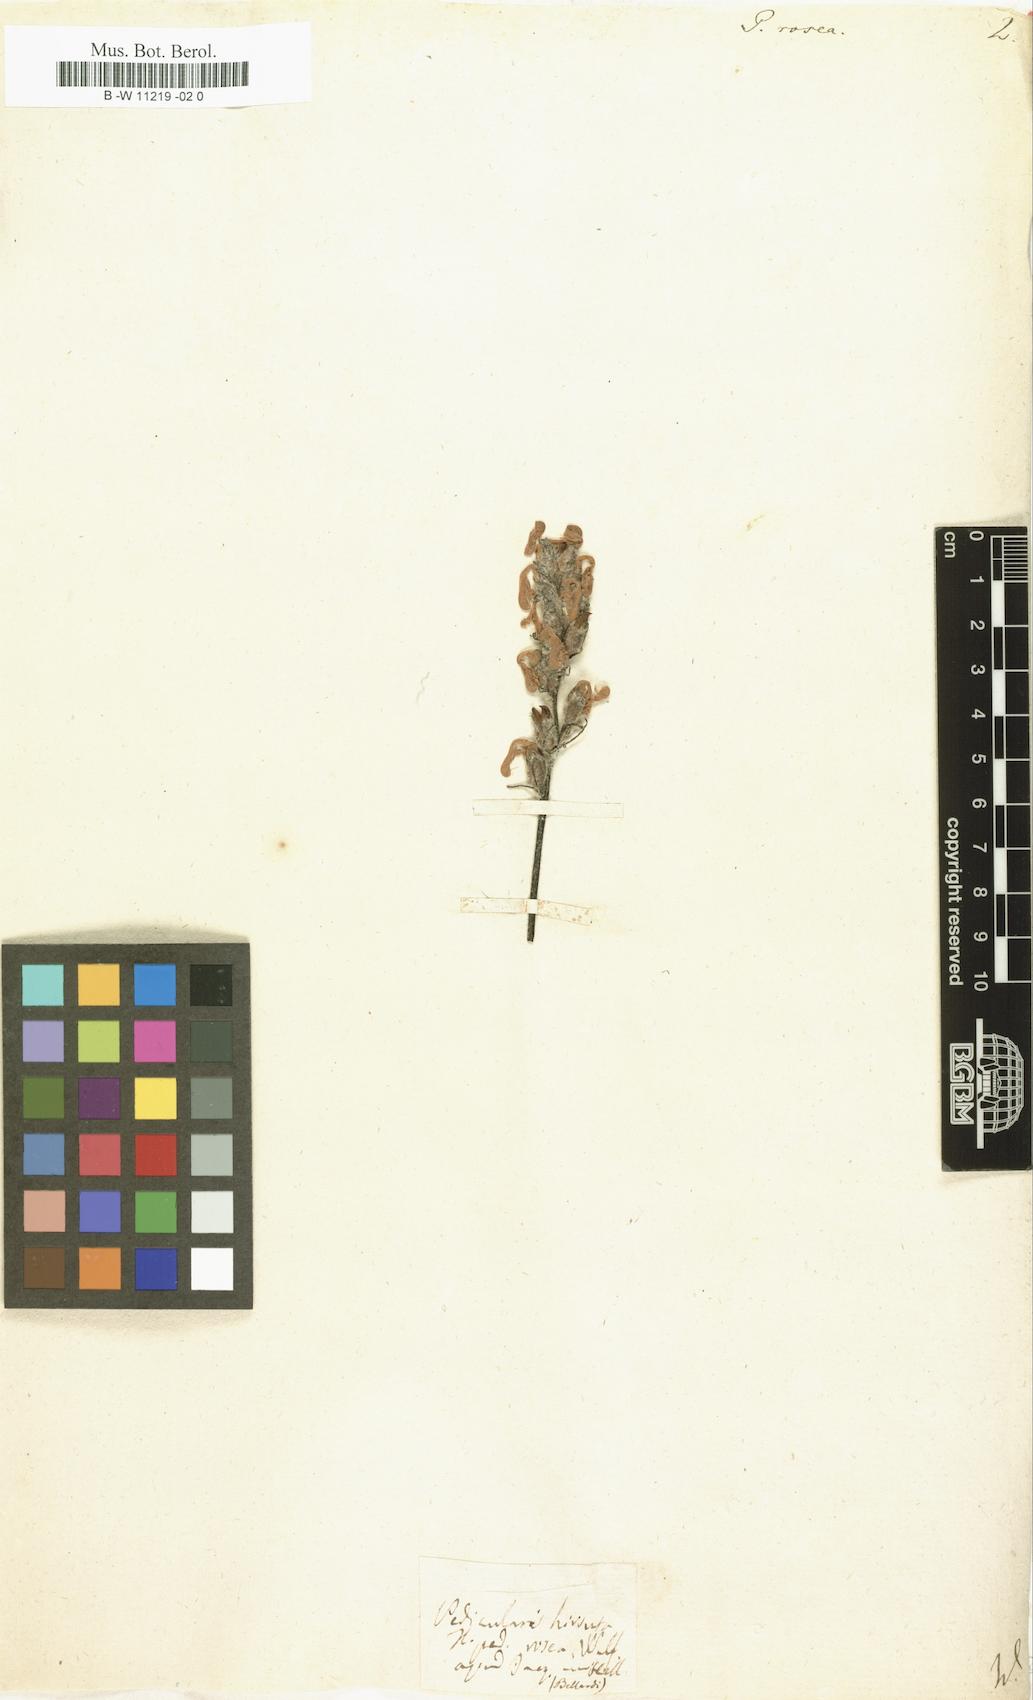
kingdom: Plantae
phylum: Tracheophyta
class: Magnoliopsida
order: Lamiales
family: Orobanchaceae
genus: Pedicularis
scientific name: Pedicularis rosea
